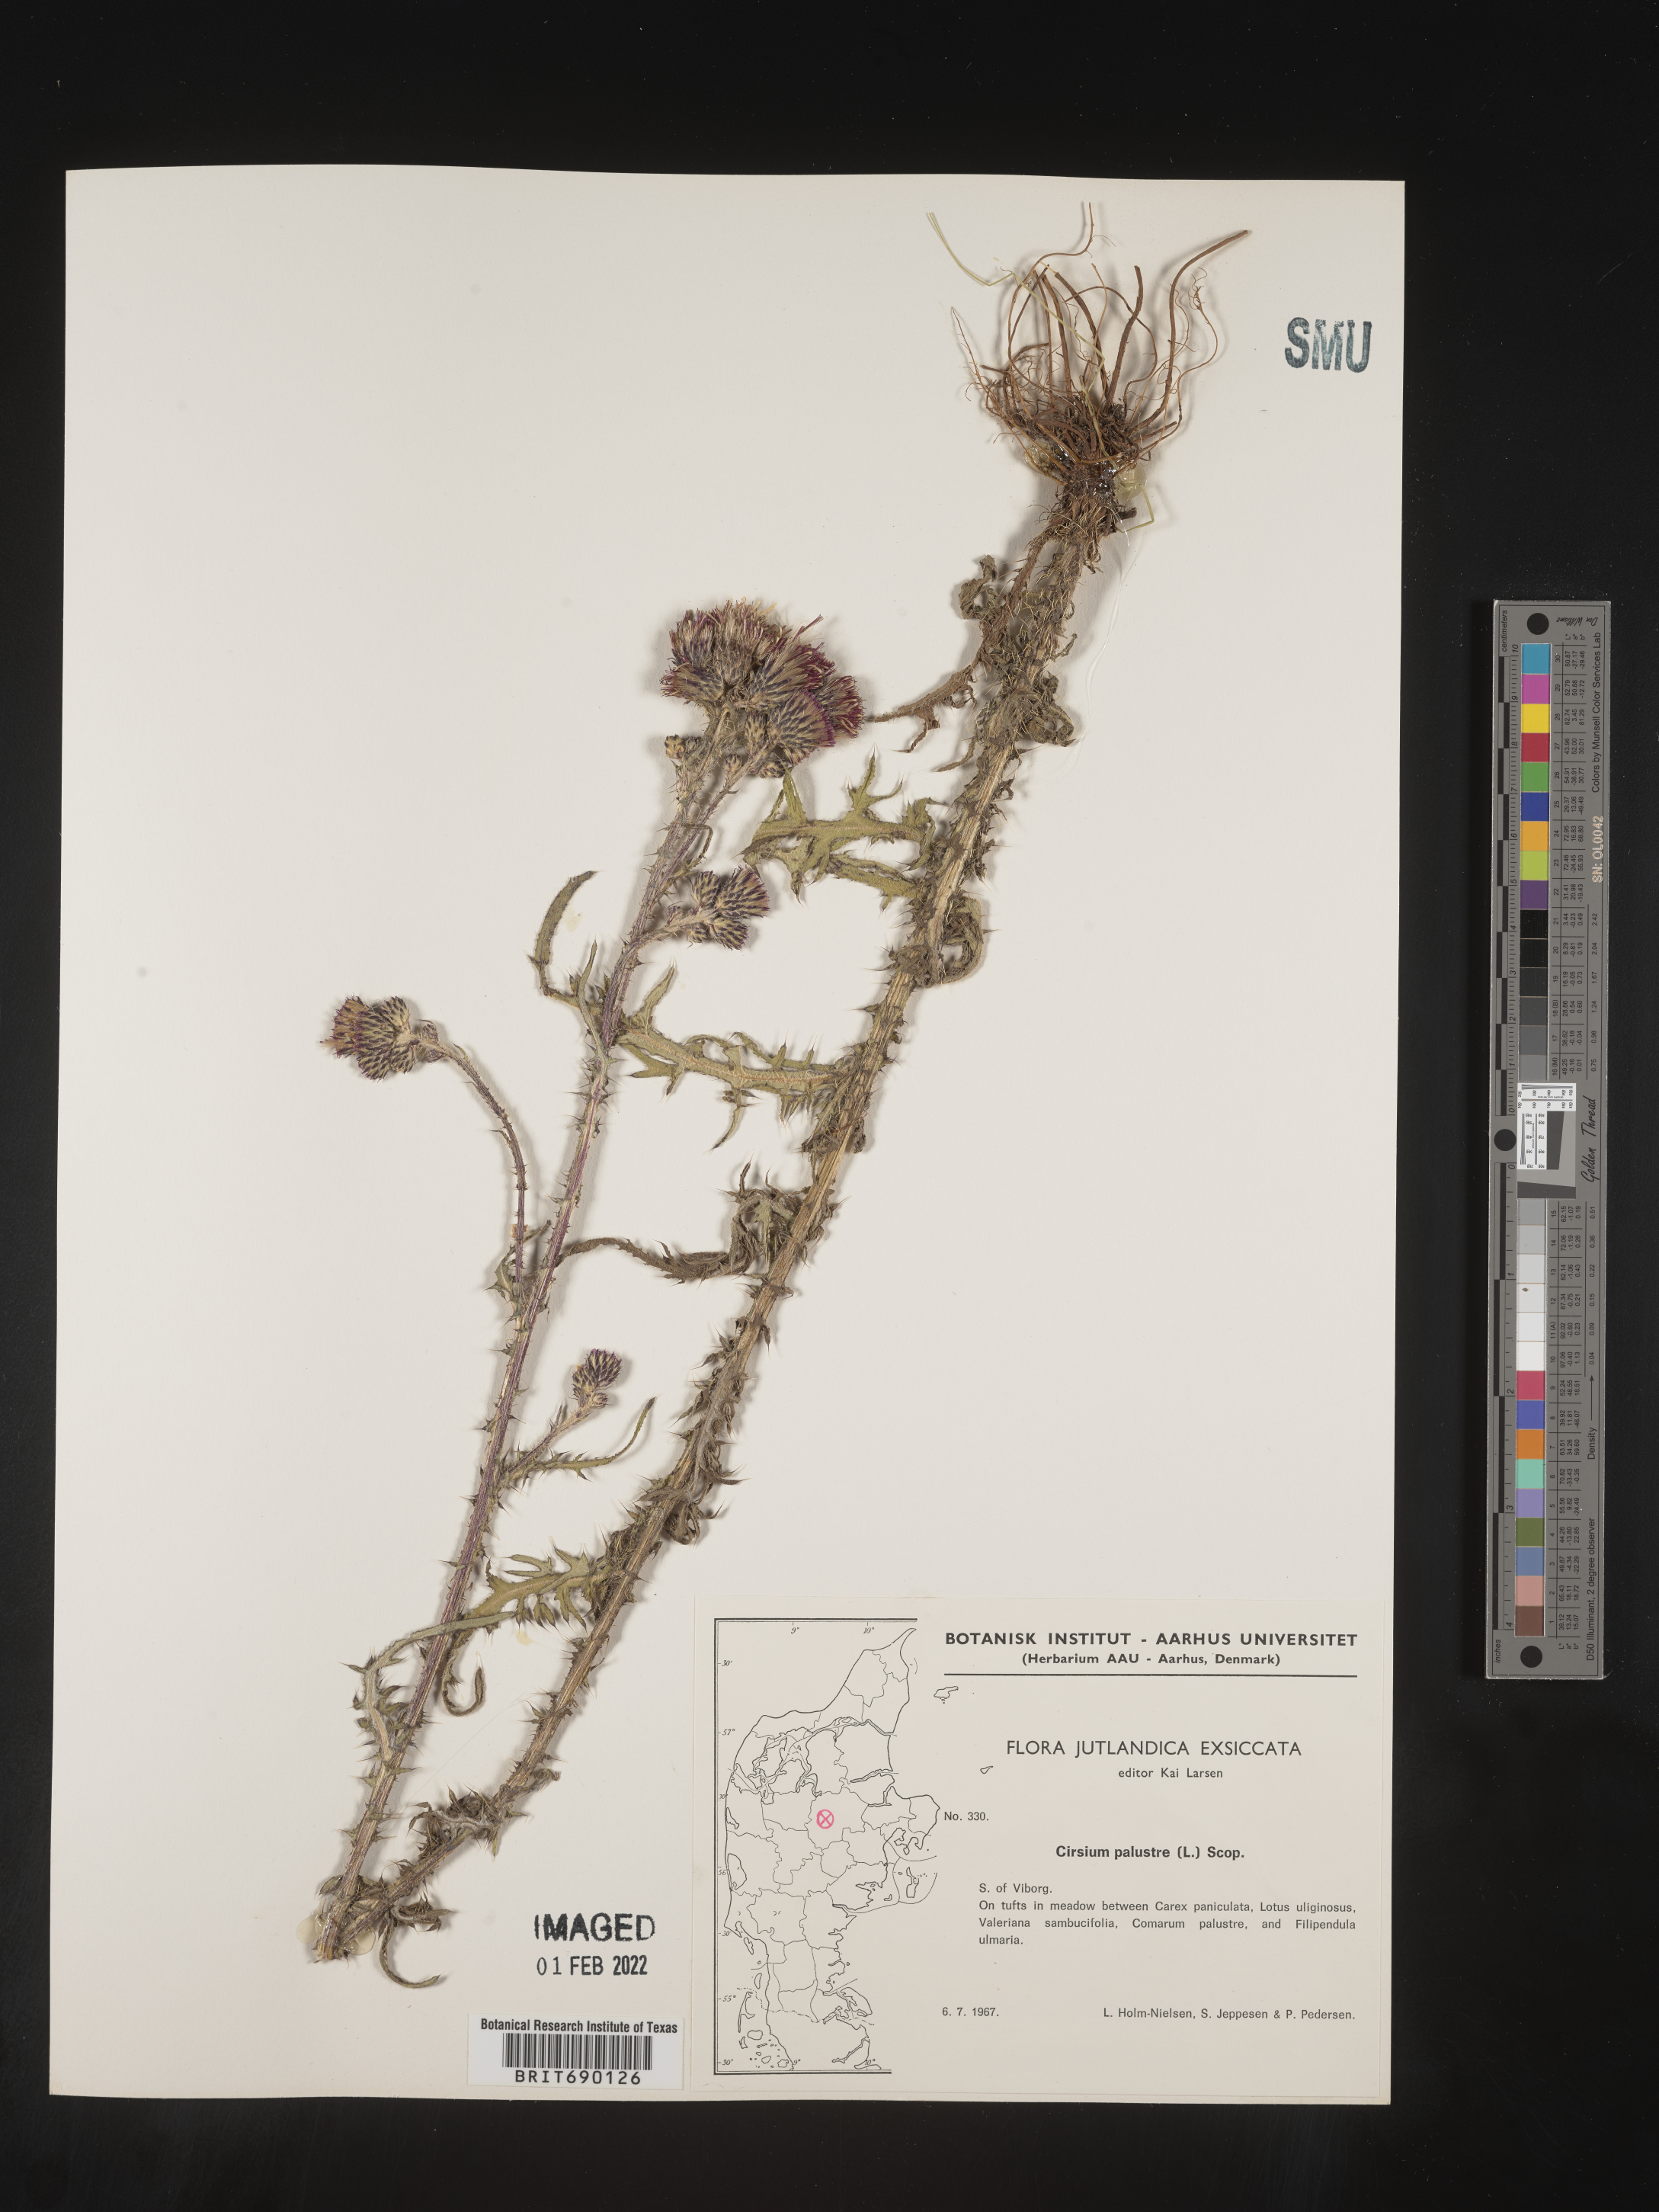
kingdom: Plantae
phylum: Tracheophyta
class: Magnoliopsida
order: Asterales
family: Asteraceae
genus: Cirsium
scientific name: Cirsium
